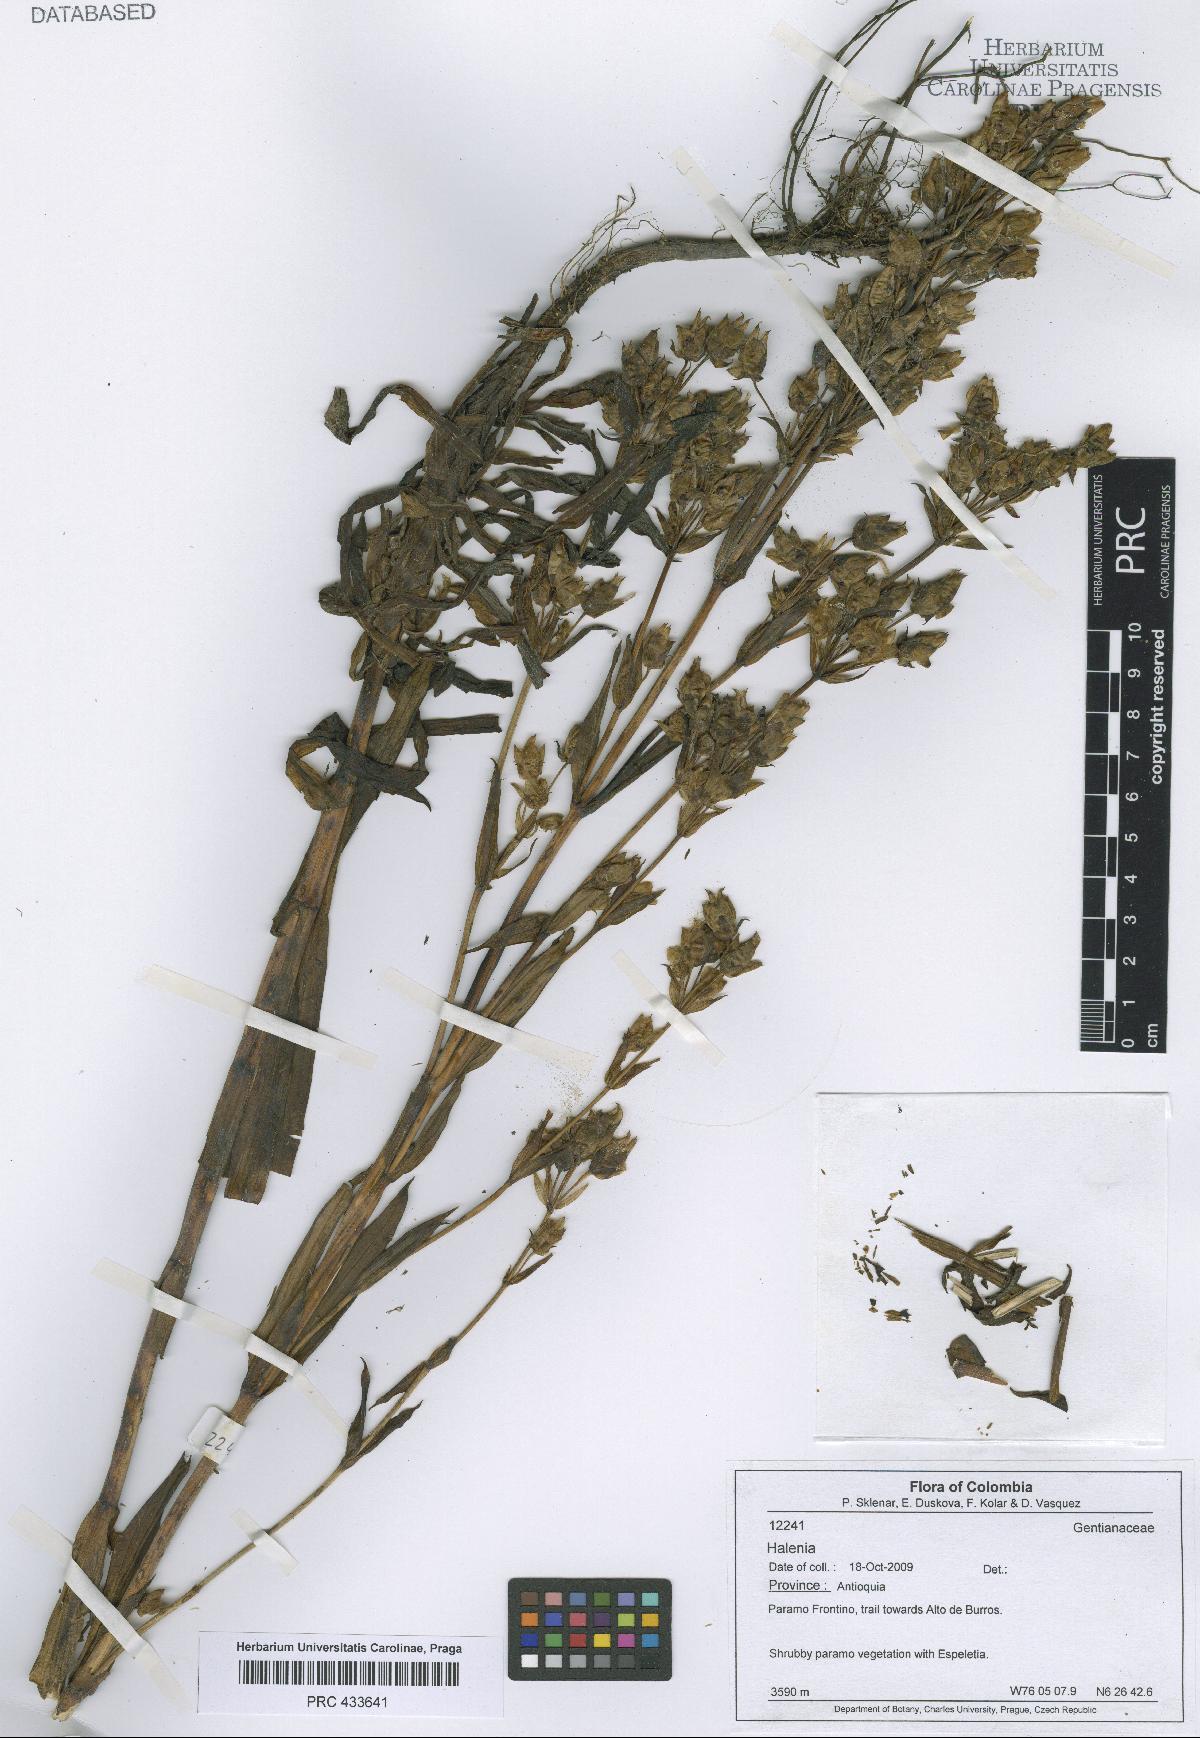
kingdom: Plantae
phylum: Tracheophyta
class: Magnoliopsida
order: Gentianales
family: Gentianaceae
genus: Halenia
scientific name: Halenia
